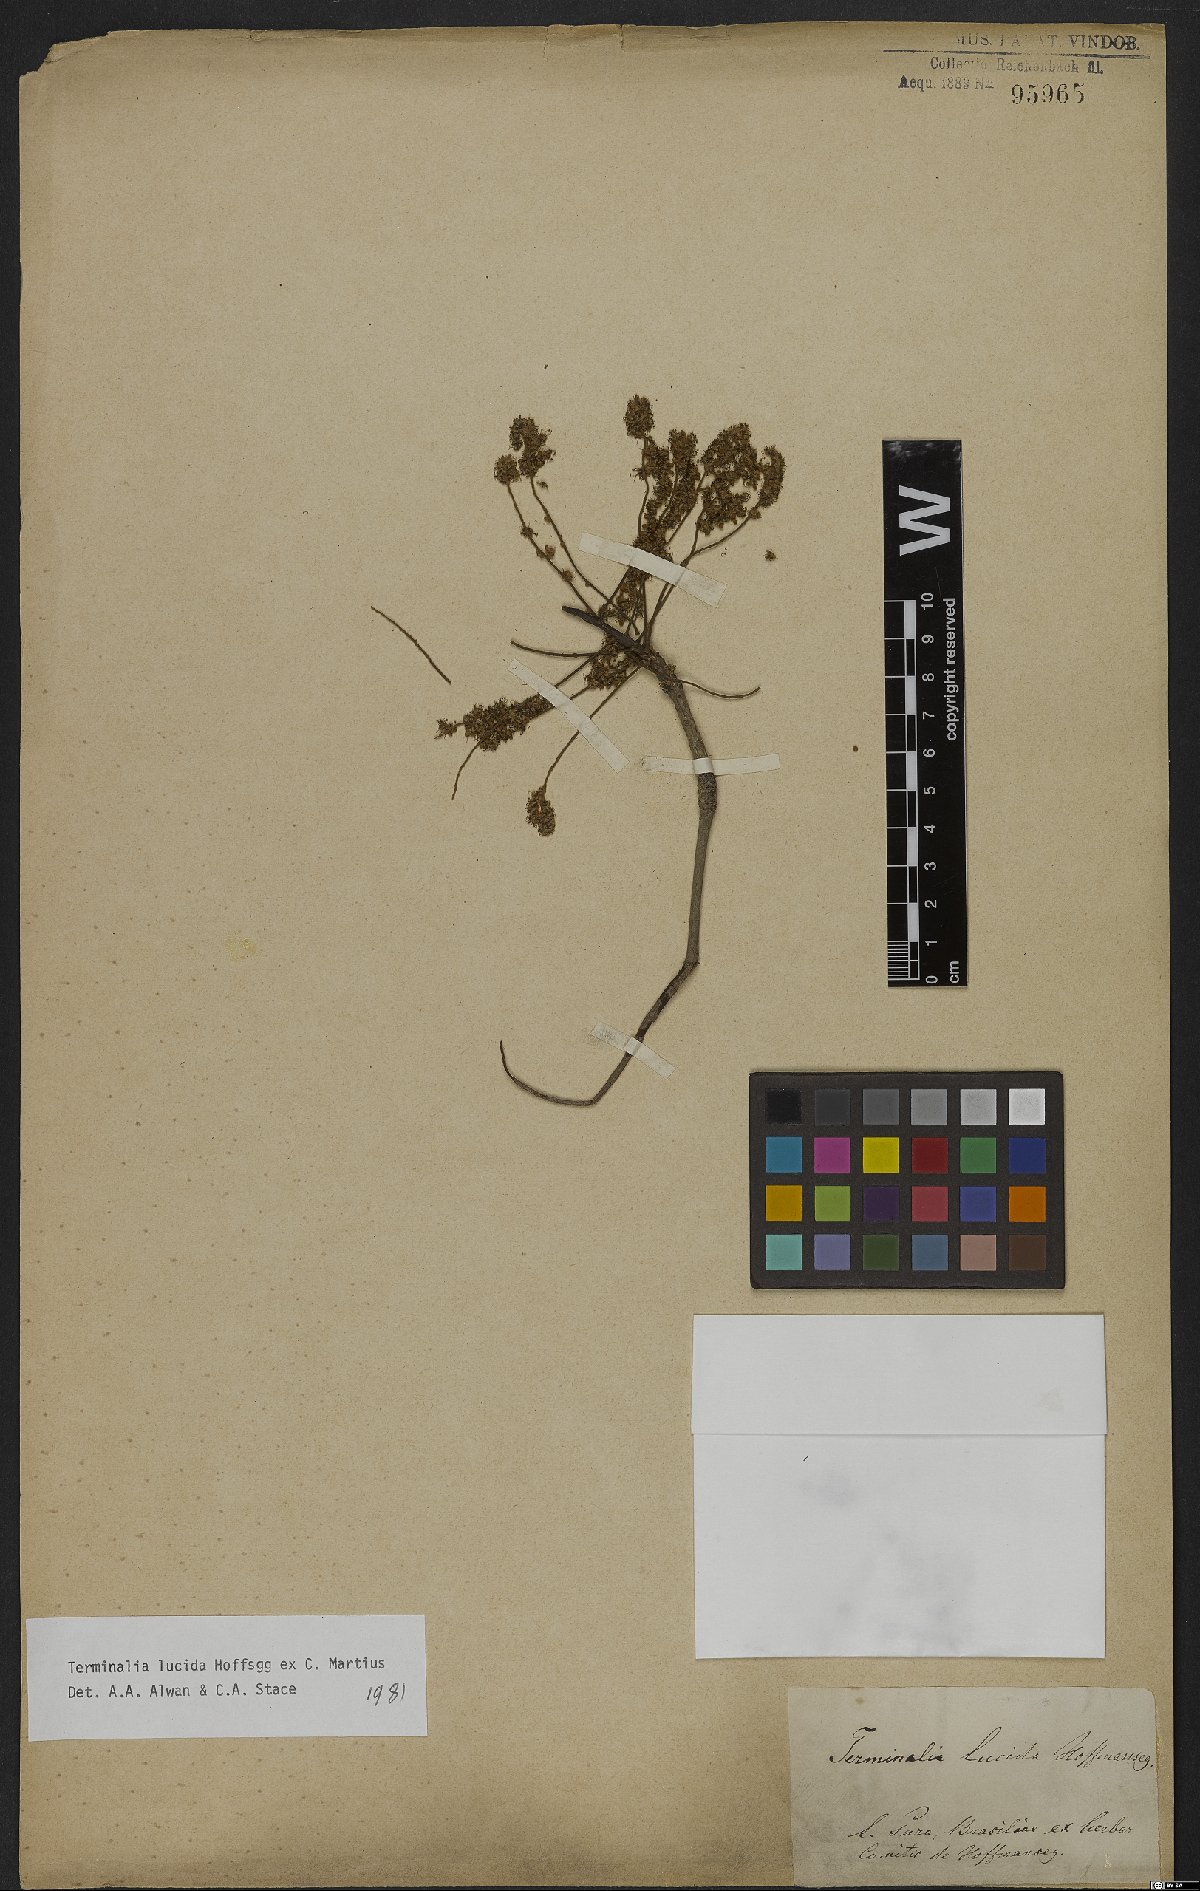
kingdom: Plantae
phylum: Tracheophyta
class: Magnoliopsida
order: Myrtales
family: Combretaceae
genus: Terminalia
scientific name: Terminalia lucida
